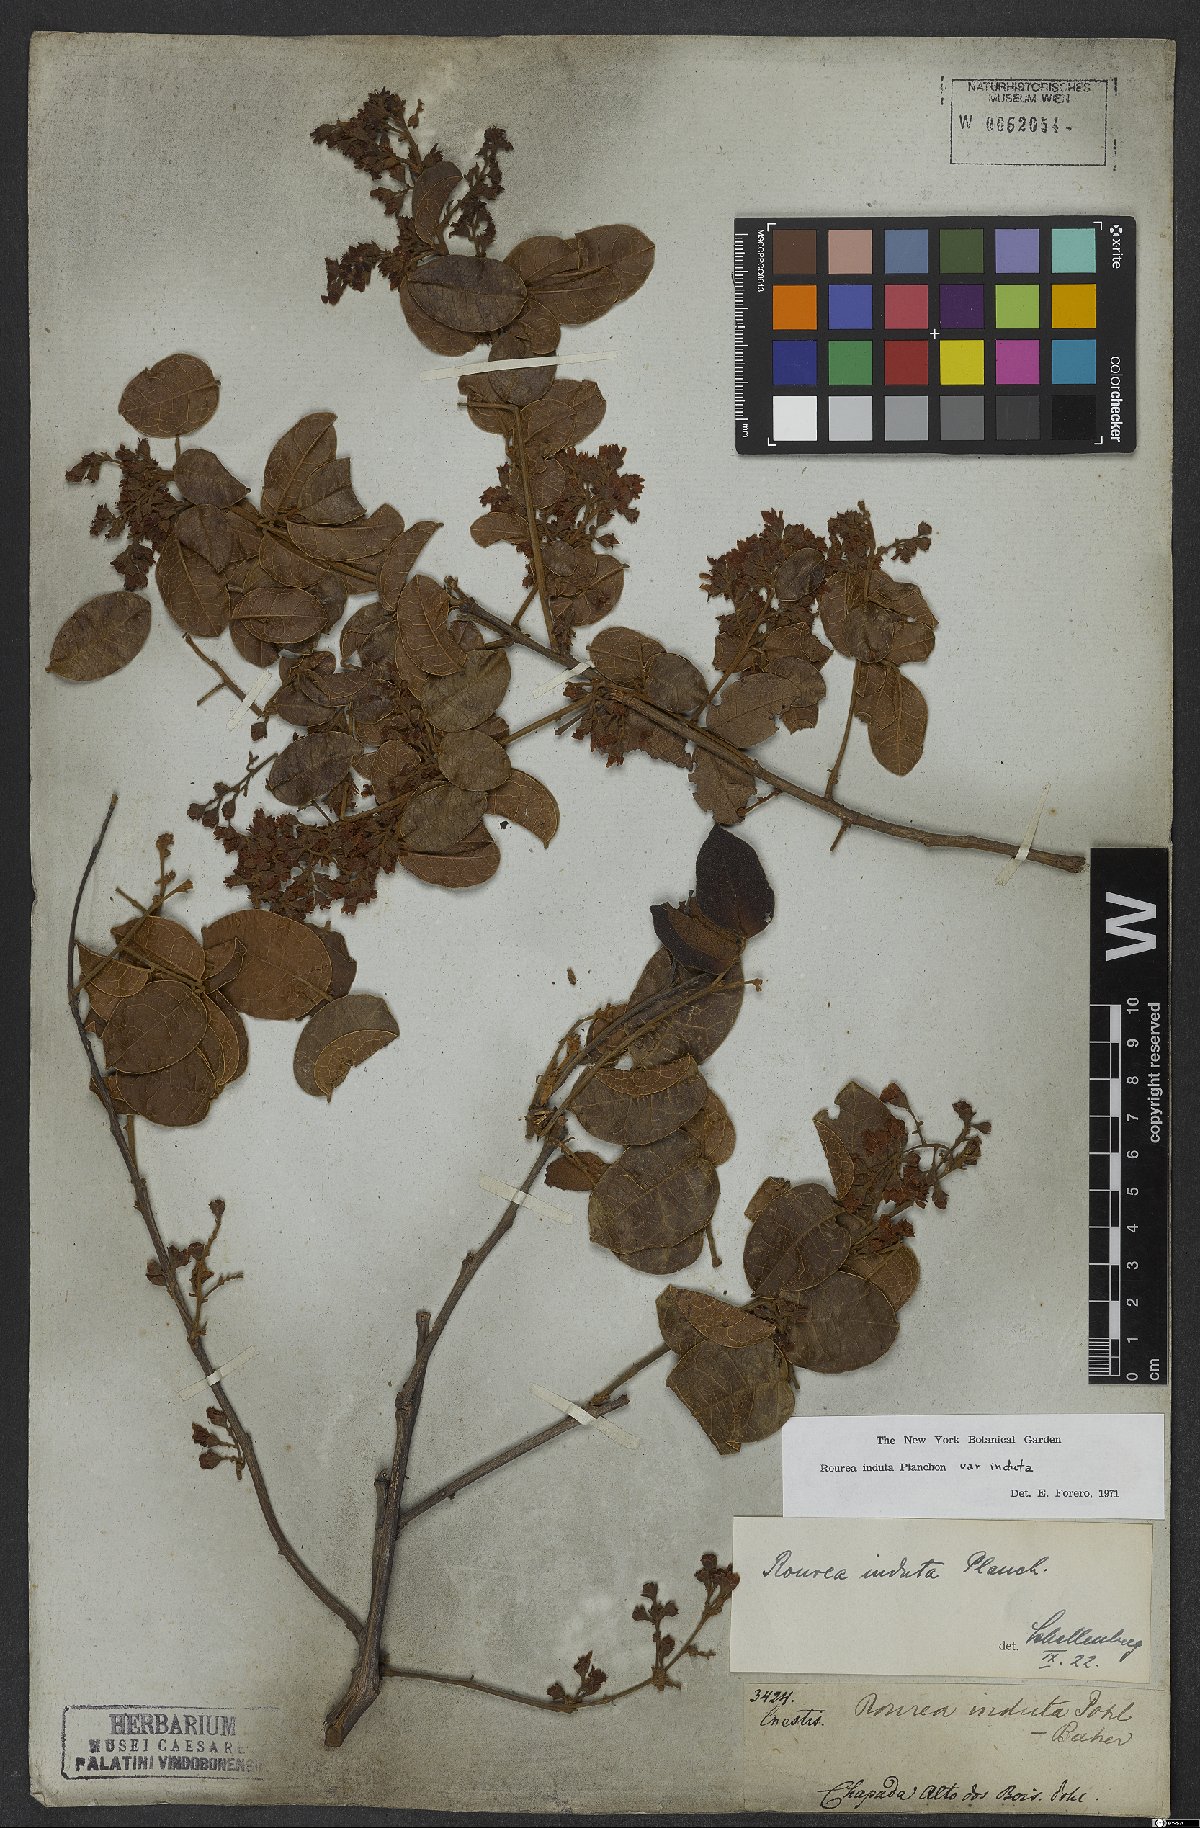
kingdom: Plantae
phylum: Tracheophyta
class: Magnoliopsida
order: Oxalidales
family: Connaraceae
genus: Rourea
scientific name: Rourea induta
